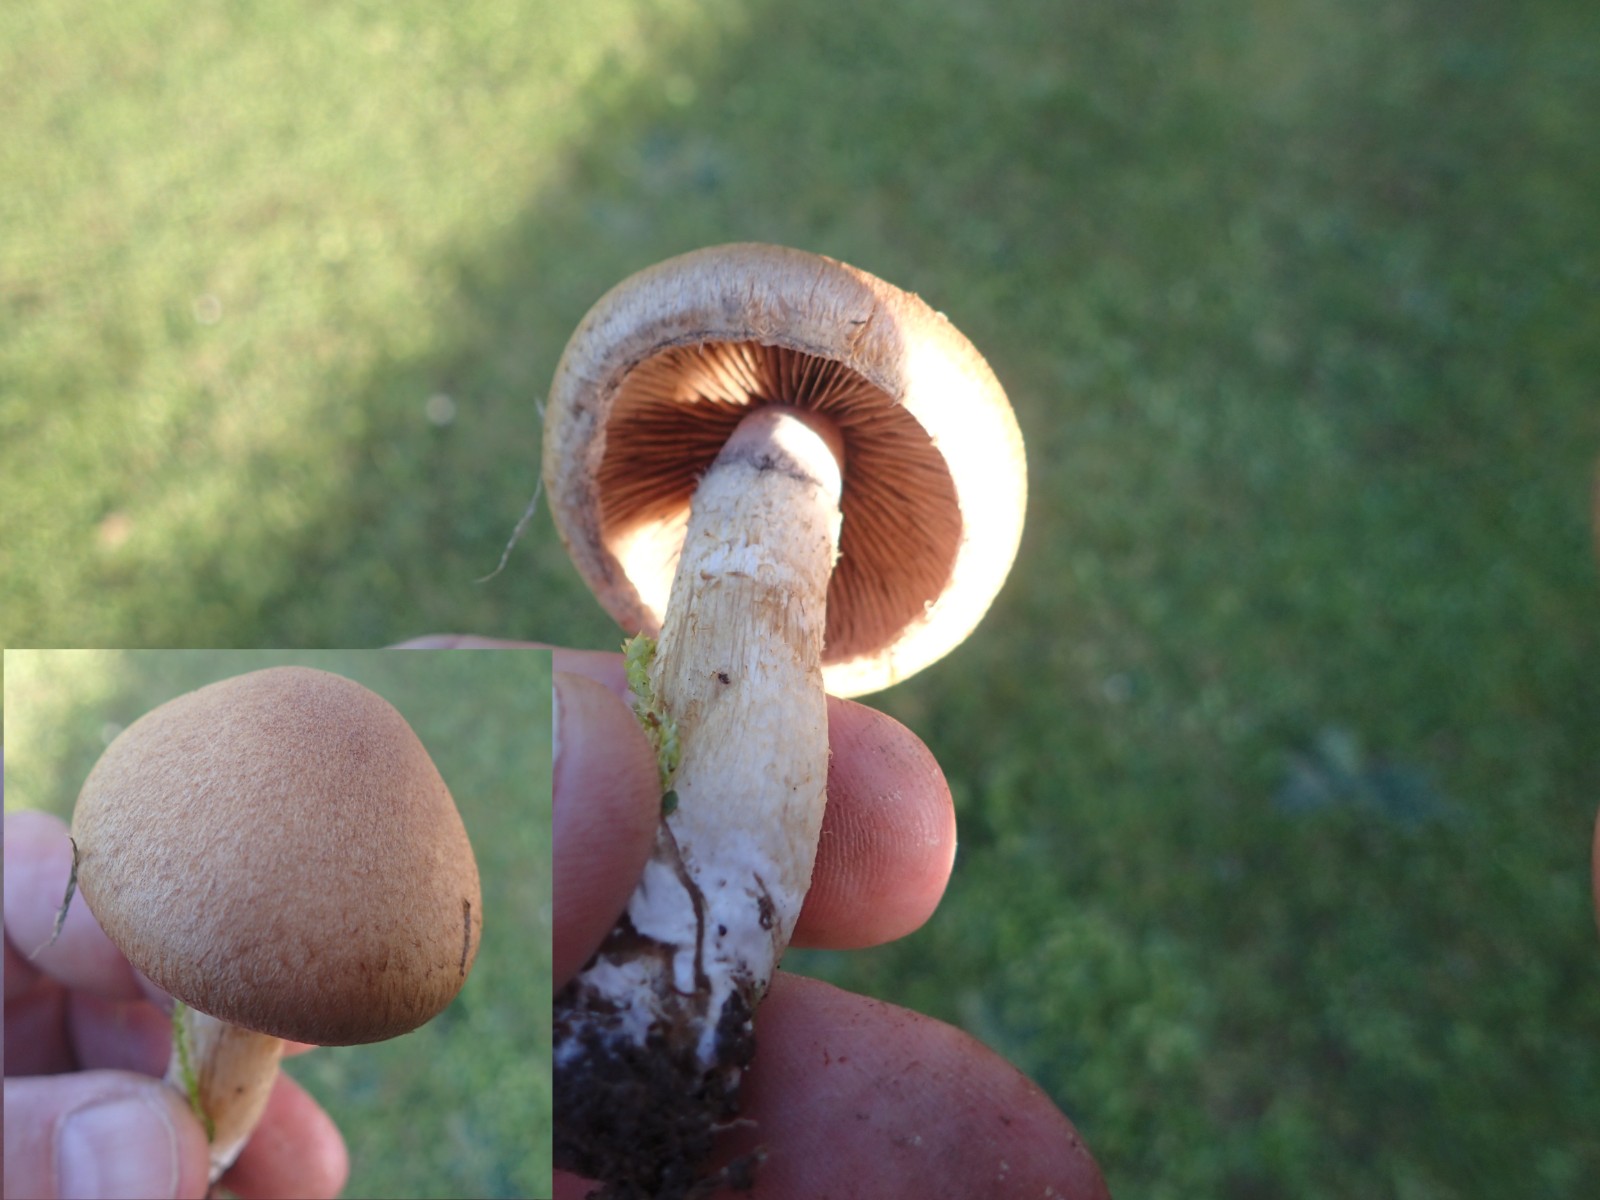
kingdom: Fungi
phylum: Basidiomycota
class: Agaricomycetes
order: Agaricales
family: Psathyrellaceae
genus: Lacrymaria
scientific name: Lacrymaria lacrymabunda
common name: grædende mørkhat
